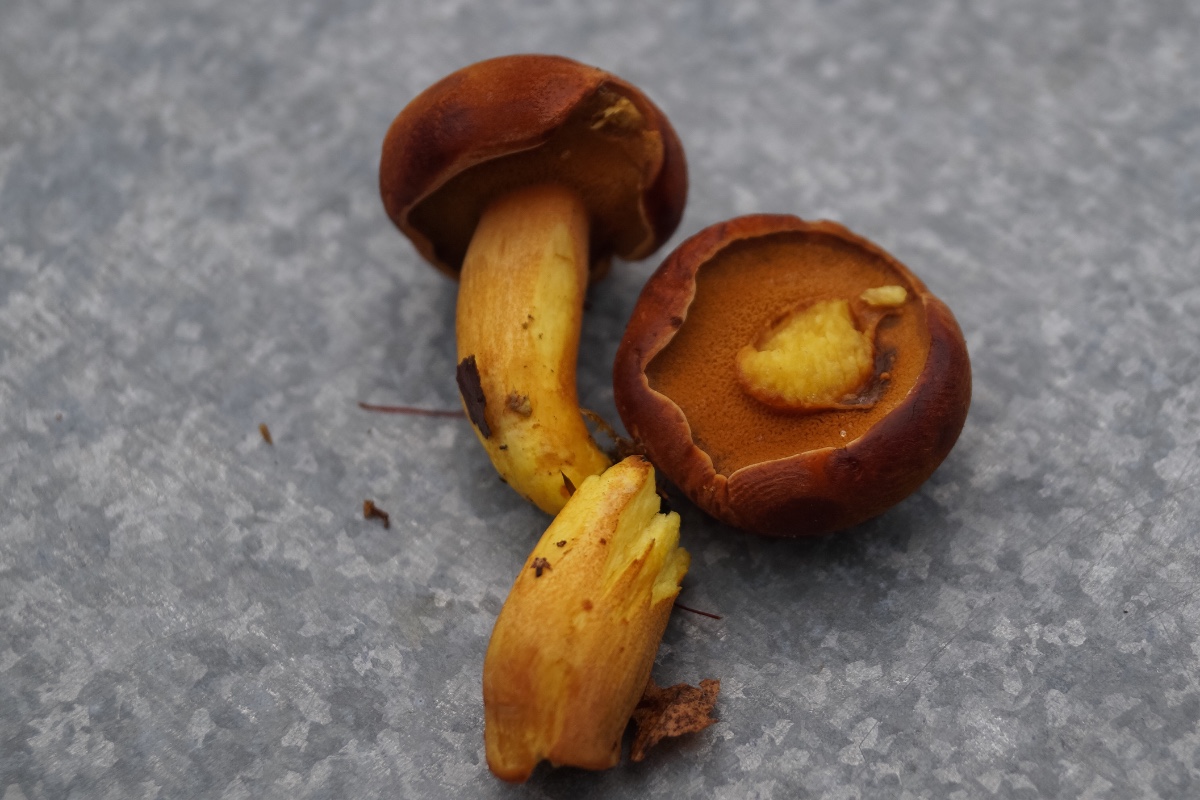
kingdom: Fungi
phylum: Basidiomycota
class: Agaricomycetes
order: Boletales
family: Boletaceae
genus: Chalciporus
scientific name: Chalciporus piperatus
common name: peberrørhat
